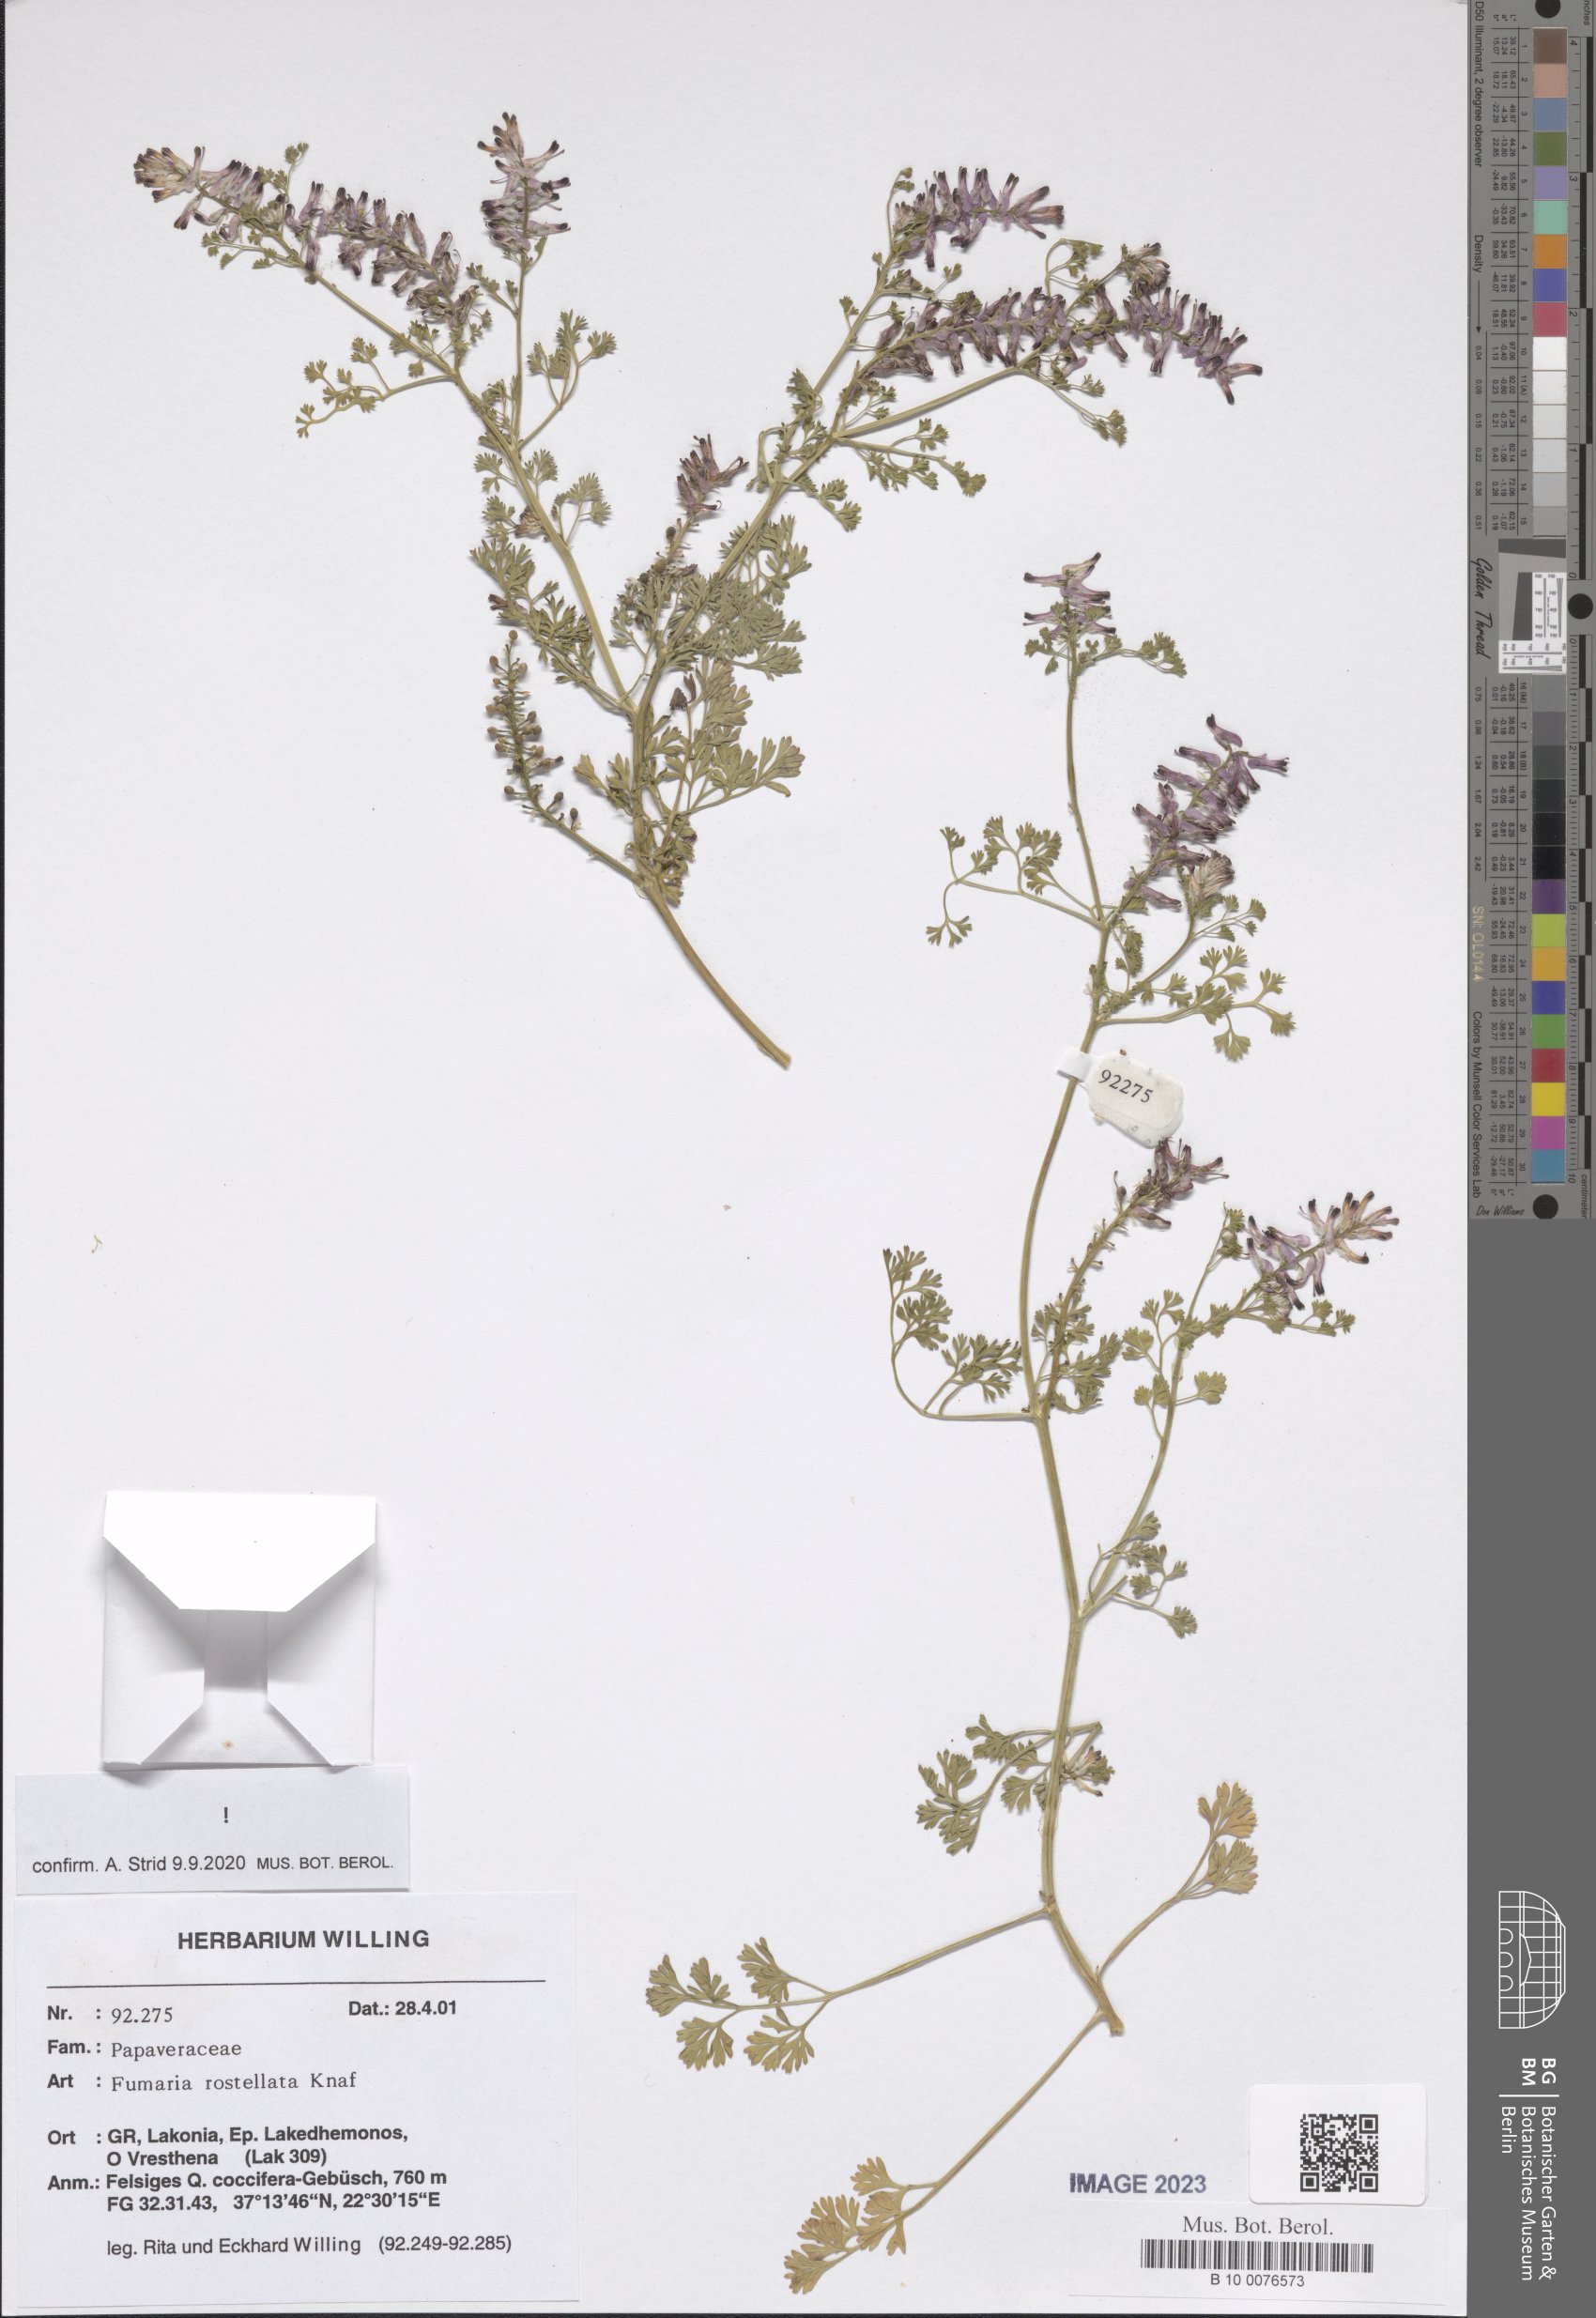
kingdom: Plantae
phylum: Tracheophyta
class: Magnoliopsida
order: Ranunculales
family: Papaveraceae
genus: Fumaria
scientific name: Fumaria rostellata
